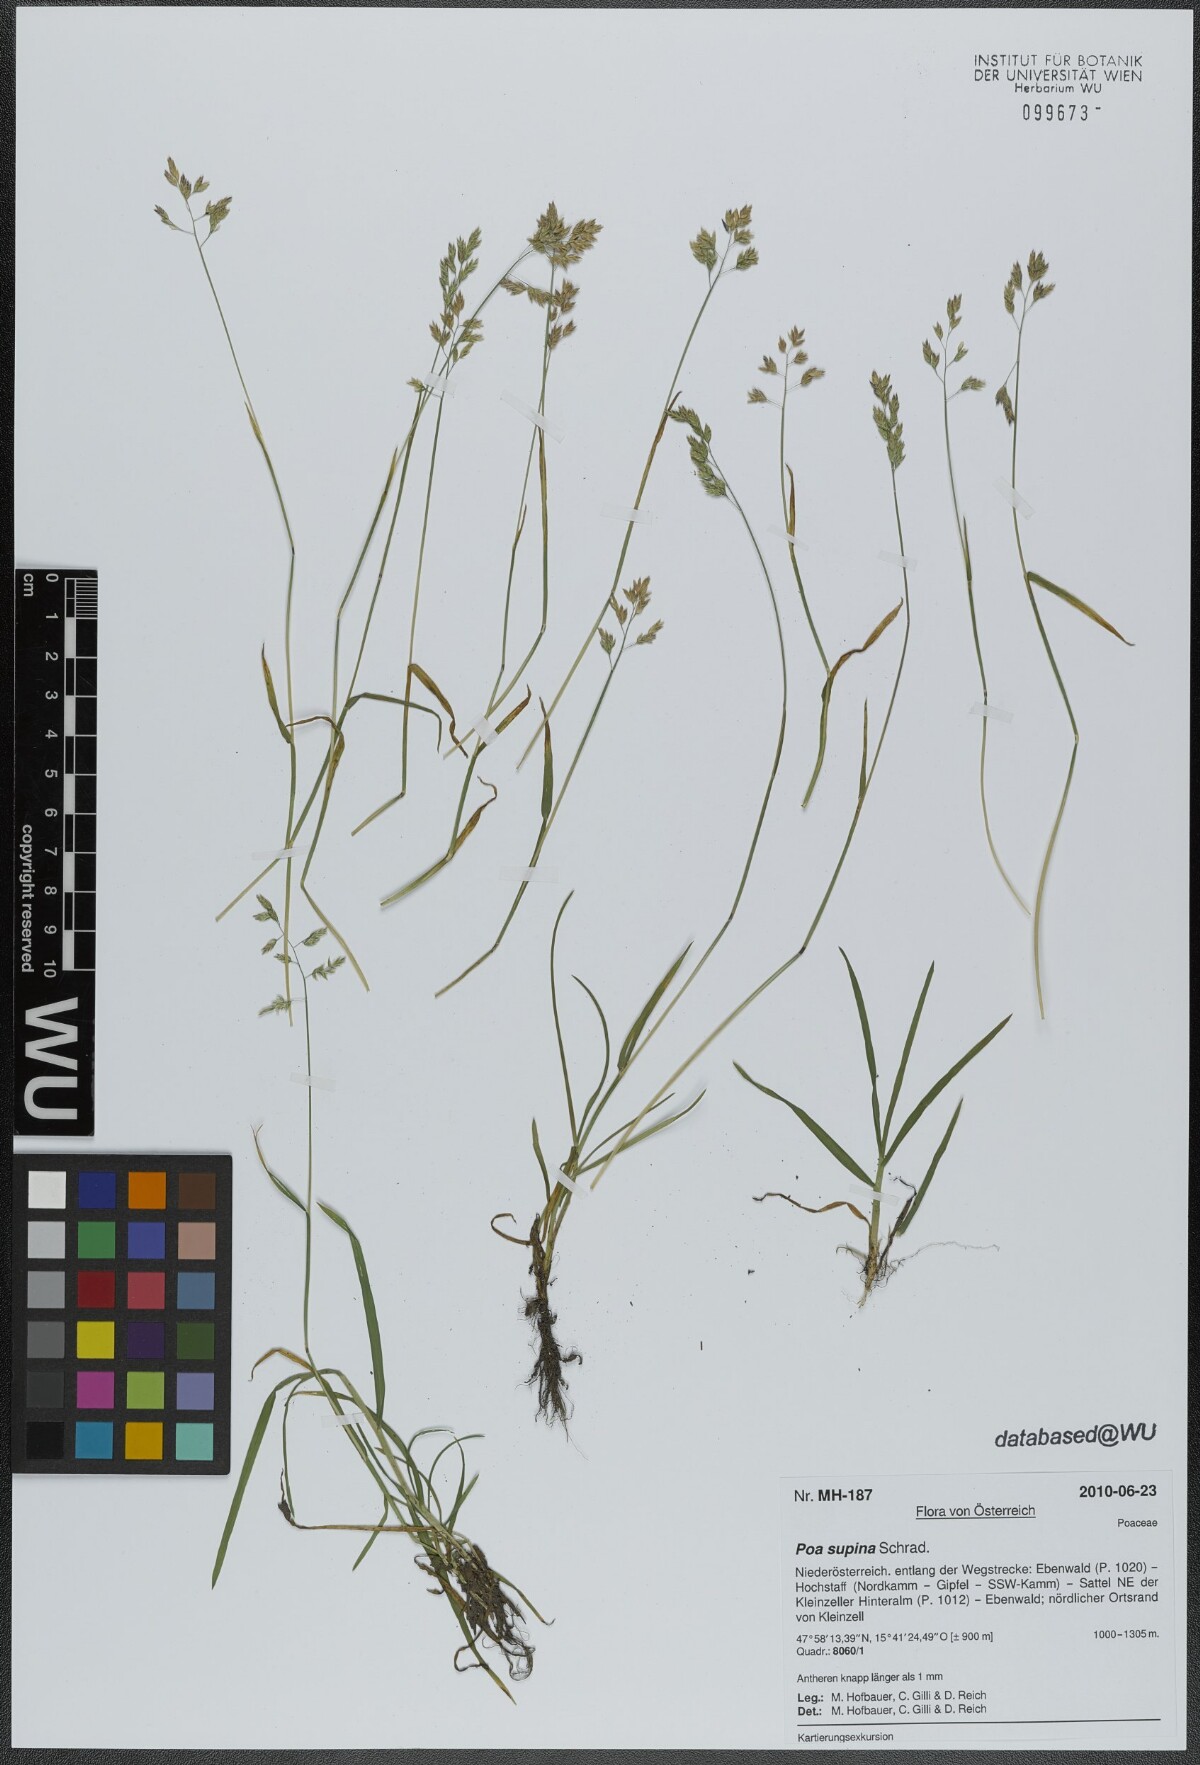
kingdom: Plantae
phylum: Tracheophyta
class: Liliopsida
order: Poales
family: Poaceae
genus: Poa
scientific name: Poa supina
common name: Supina bluegrass
